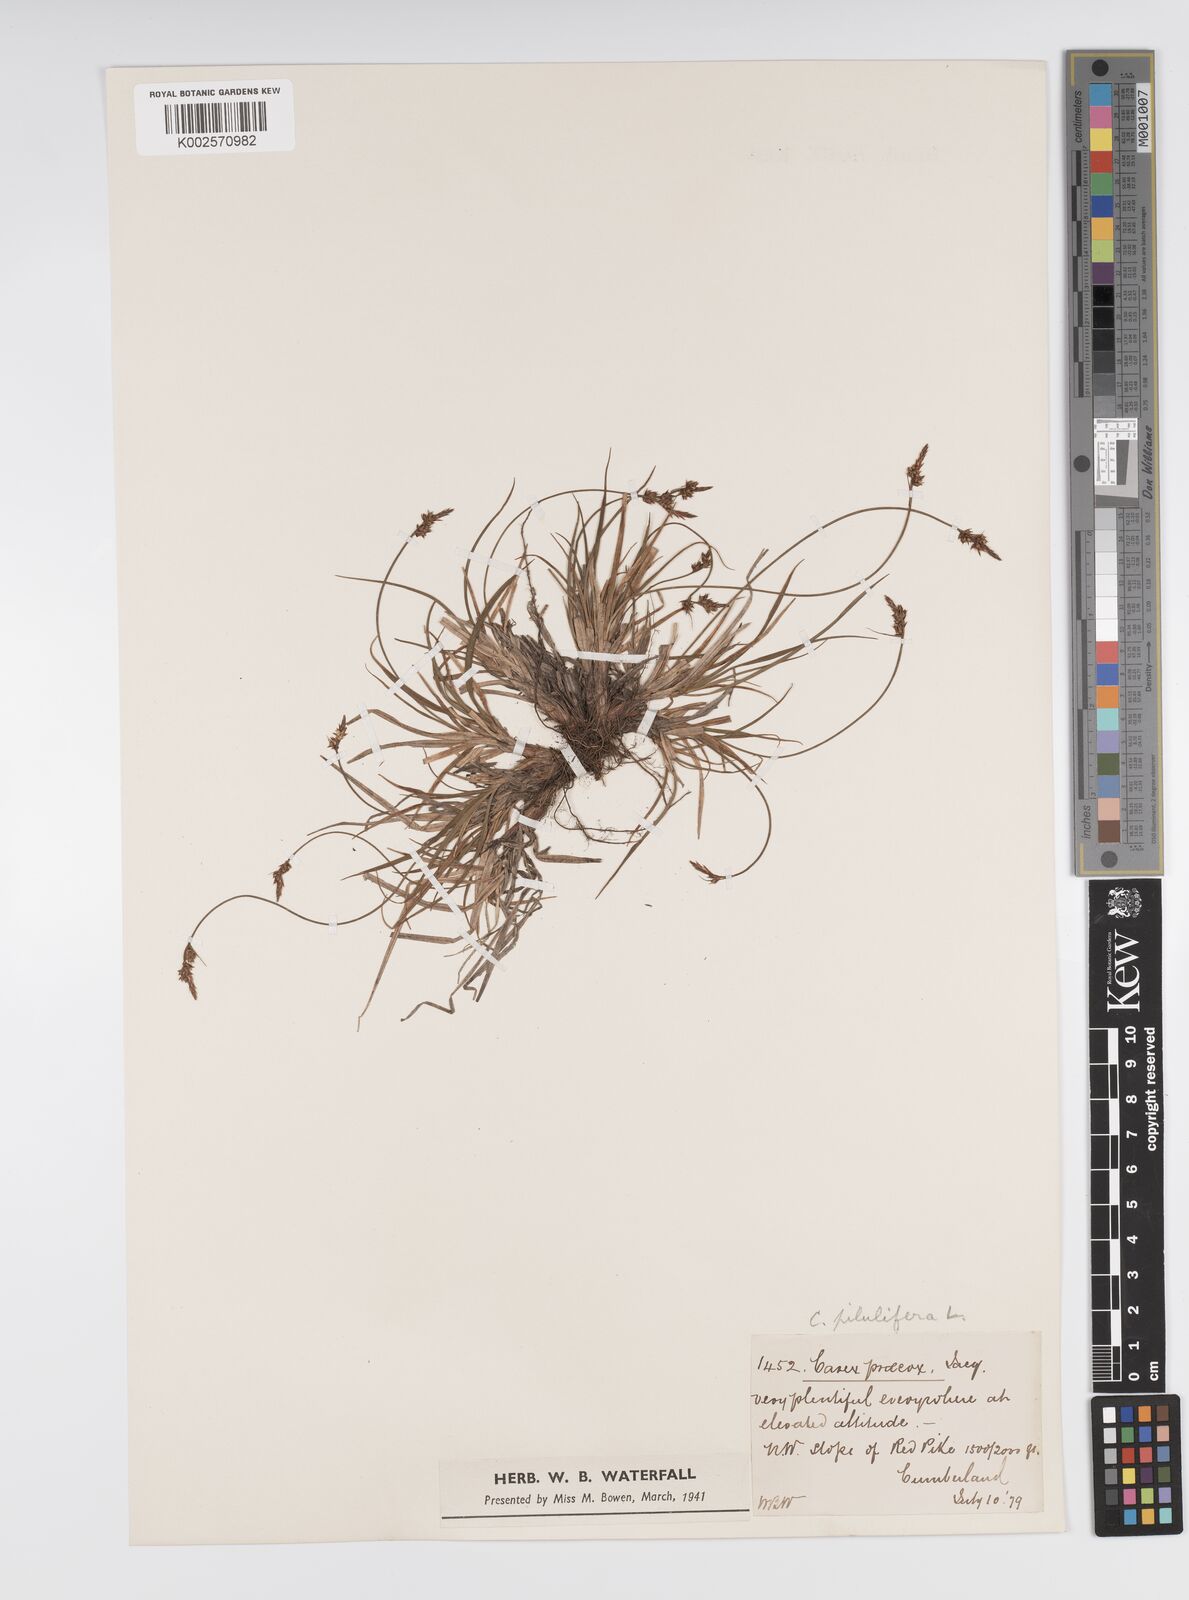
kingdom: Plantae
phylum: Tracheophyta
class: Liliopsida
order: Poales
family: Cyperaceae
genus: Carex
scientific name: Carex pilulifera
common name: Pill sedge
